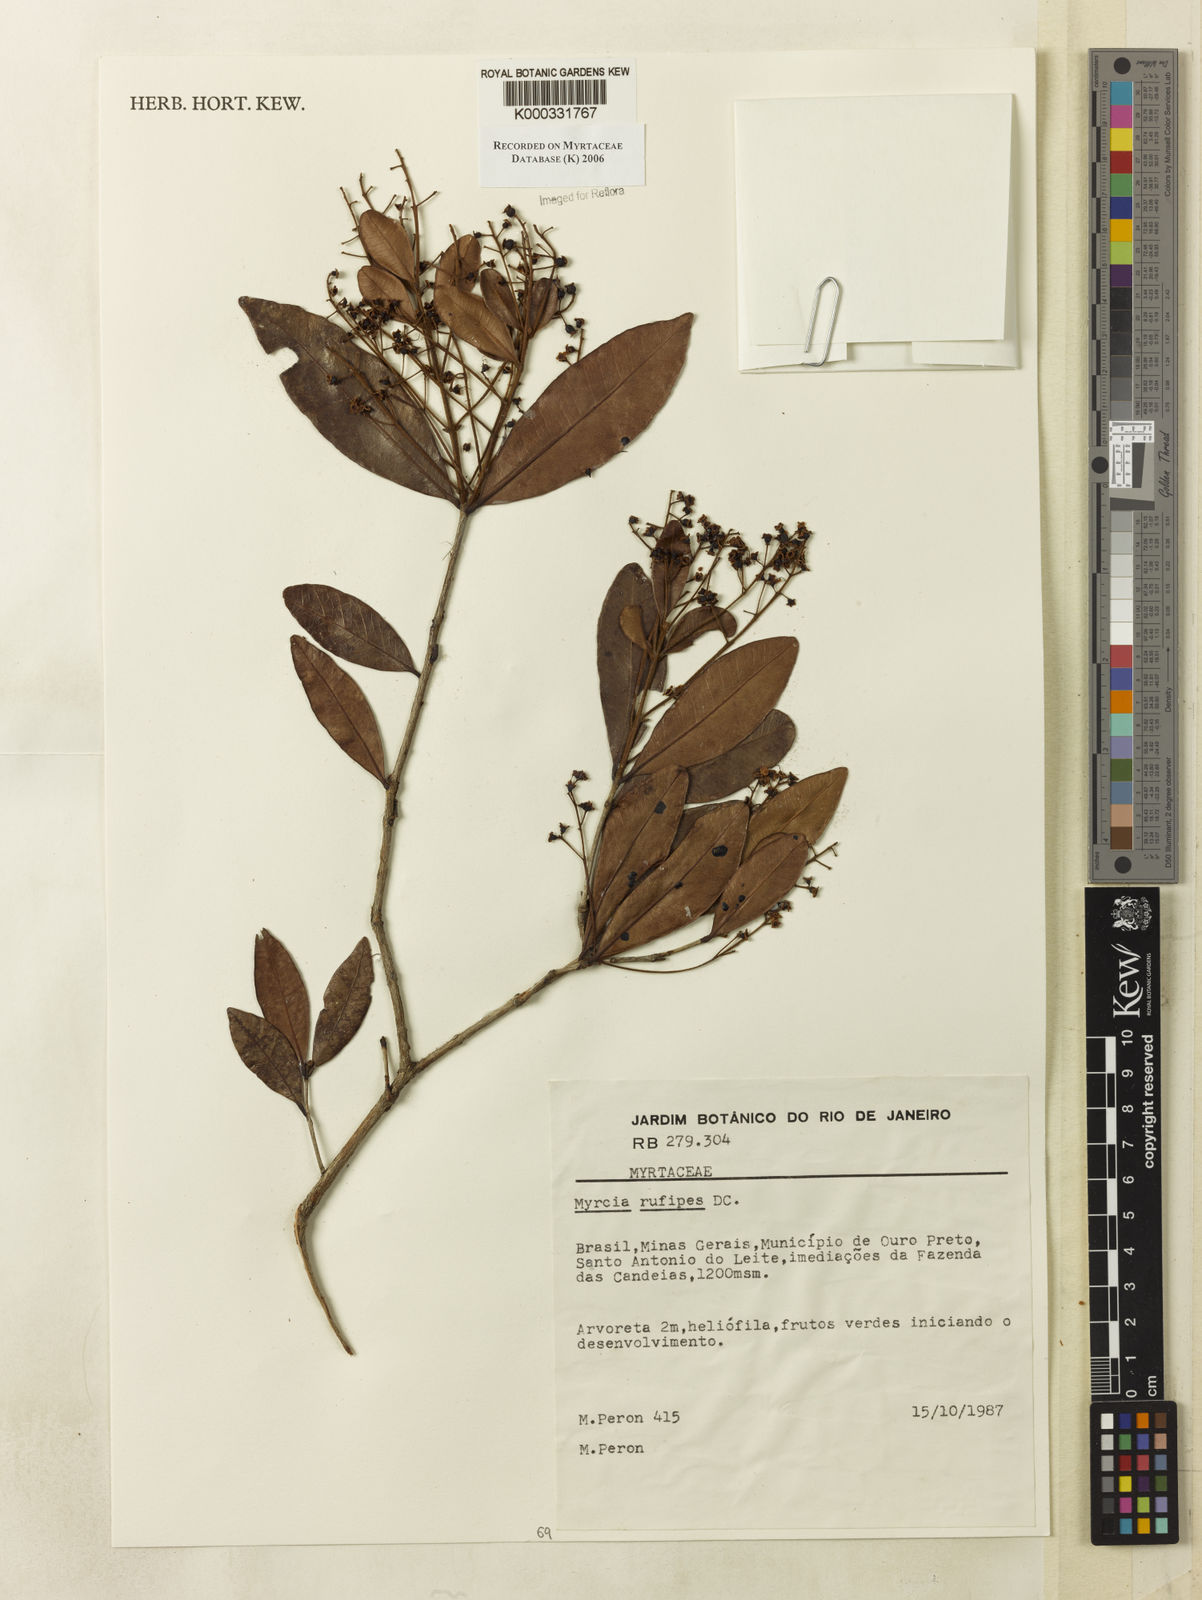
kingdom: Plantae
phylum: Tracheophyta
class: Magnoliopsida
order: Myrtales
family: Myrtaceae
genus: Myrcia
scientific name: Myrcia rufipes
